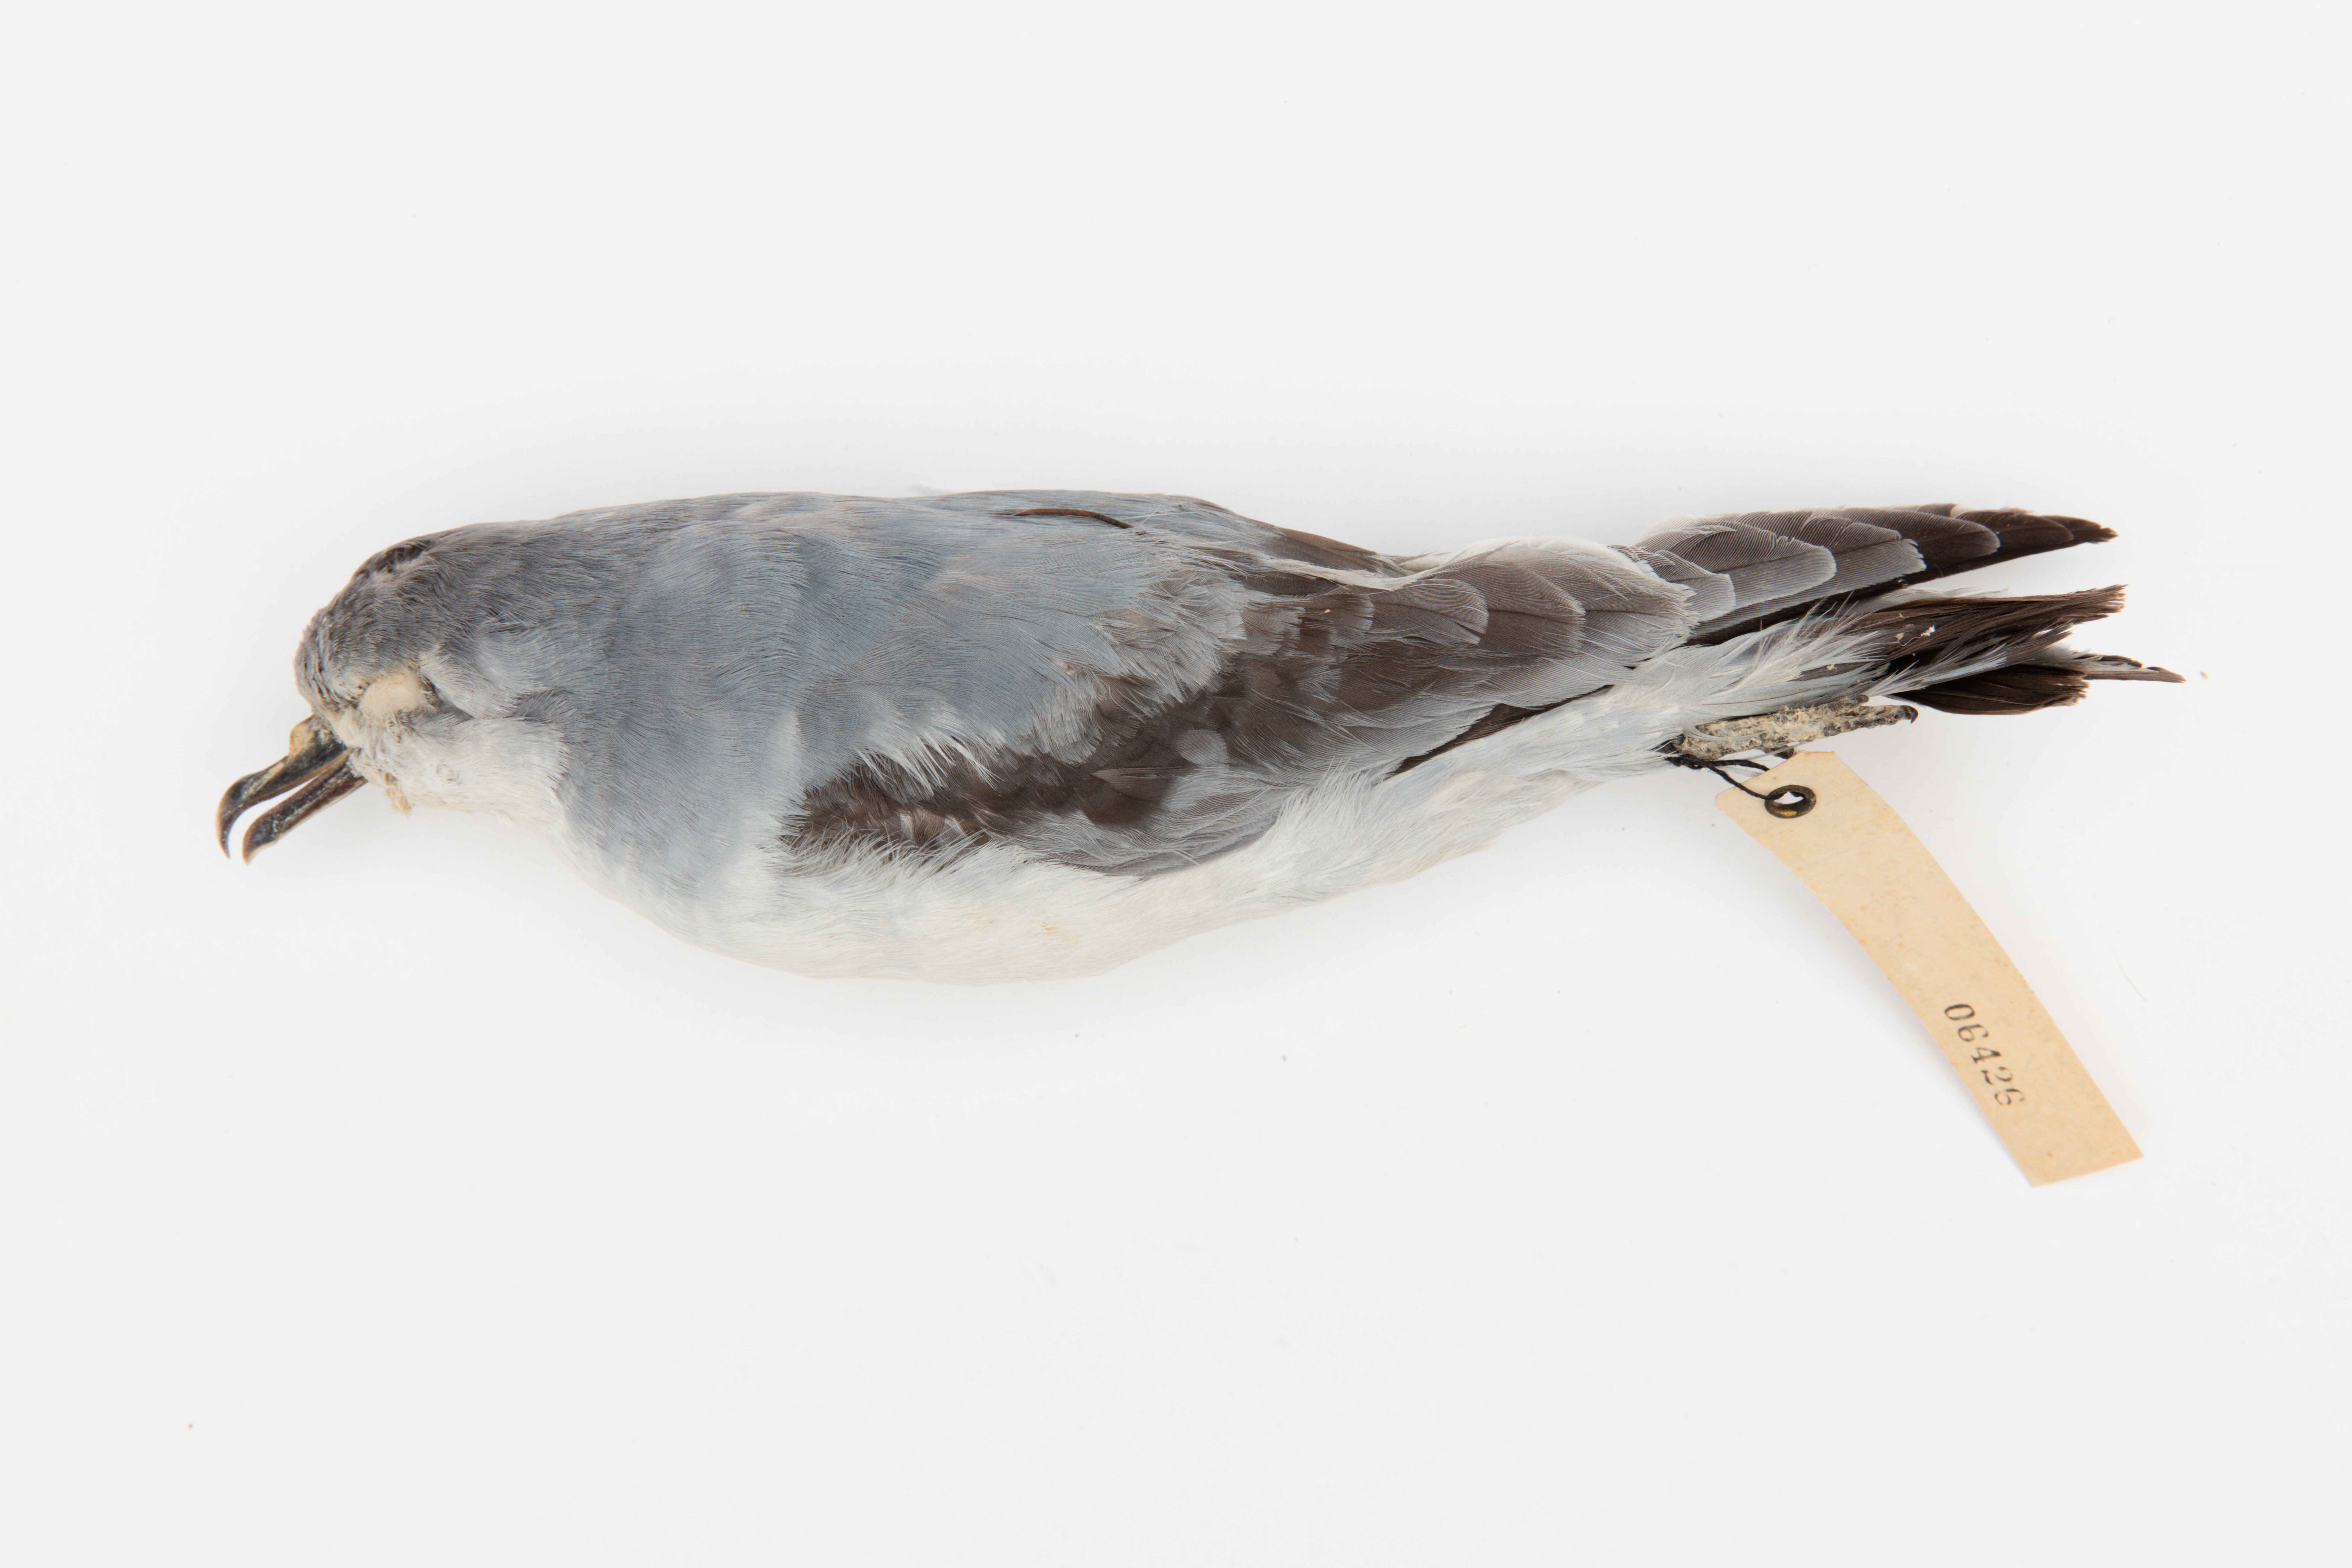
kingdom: Animalia
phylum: Chordata
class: Aves
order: Procellariiformes
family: Procellariidae
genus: Pachyptila
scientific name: Pachyptila turtur
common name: Fairy prion
